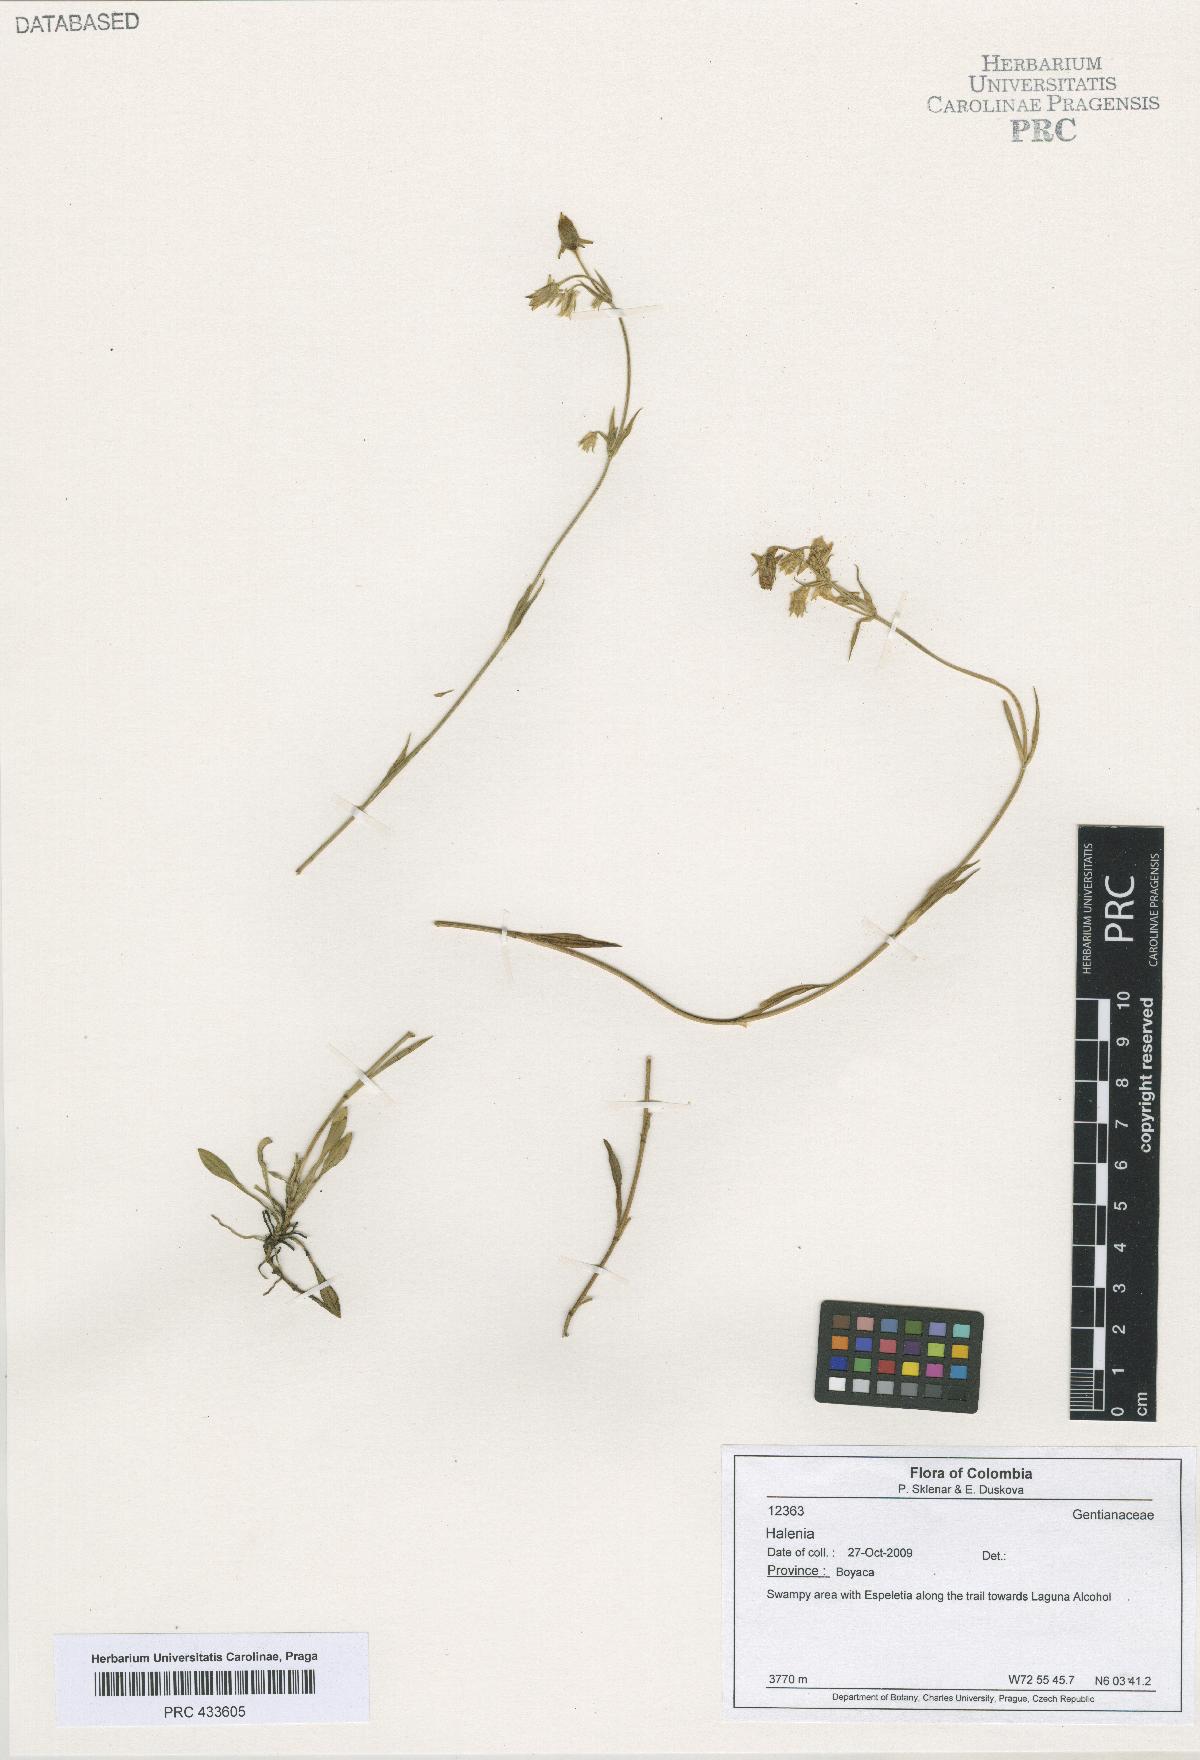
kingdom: Plantae
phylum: Tracheophyta
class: Magnoliopsida
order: Gentianales
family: Gentianaceae
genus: Halenia
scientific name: Halenia
